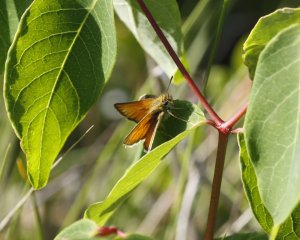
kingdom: Animalia
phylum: Arthropoda
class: Insecta
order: Lepidoptera
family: Hesperiidae
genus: Thymelicus
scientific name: Thymelicus lineola
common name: European Skipper
